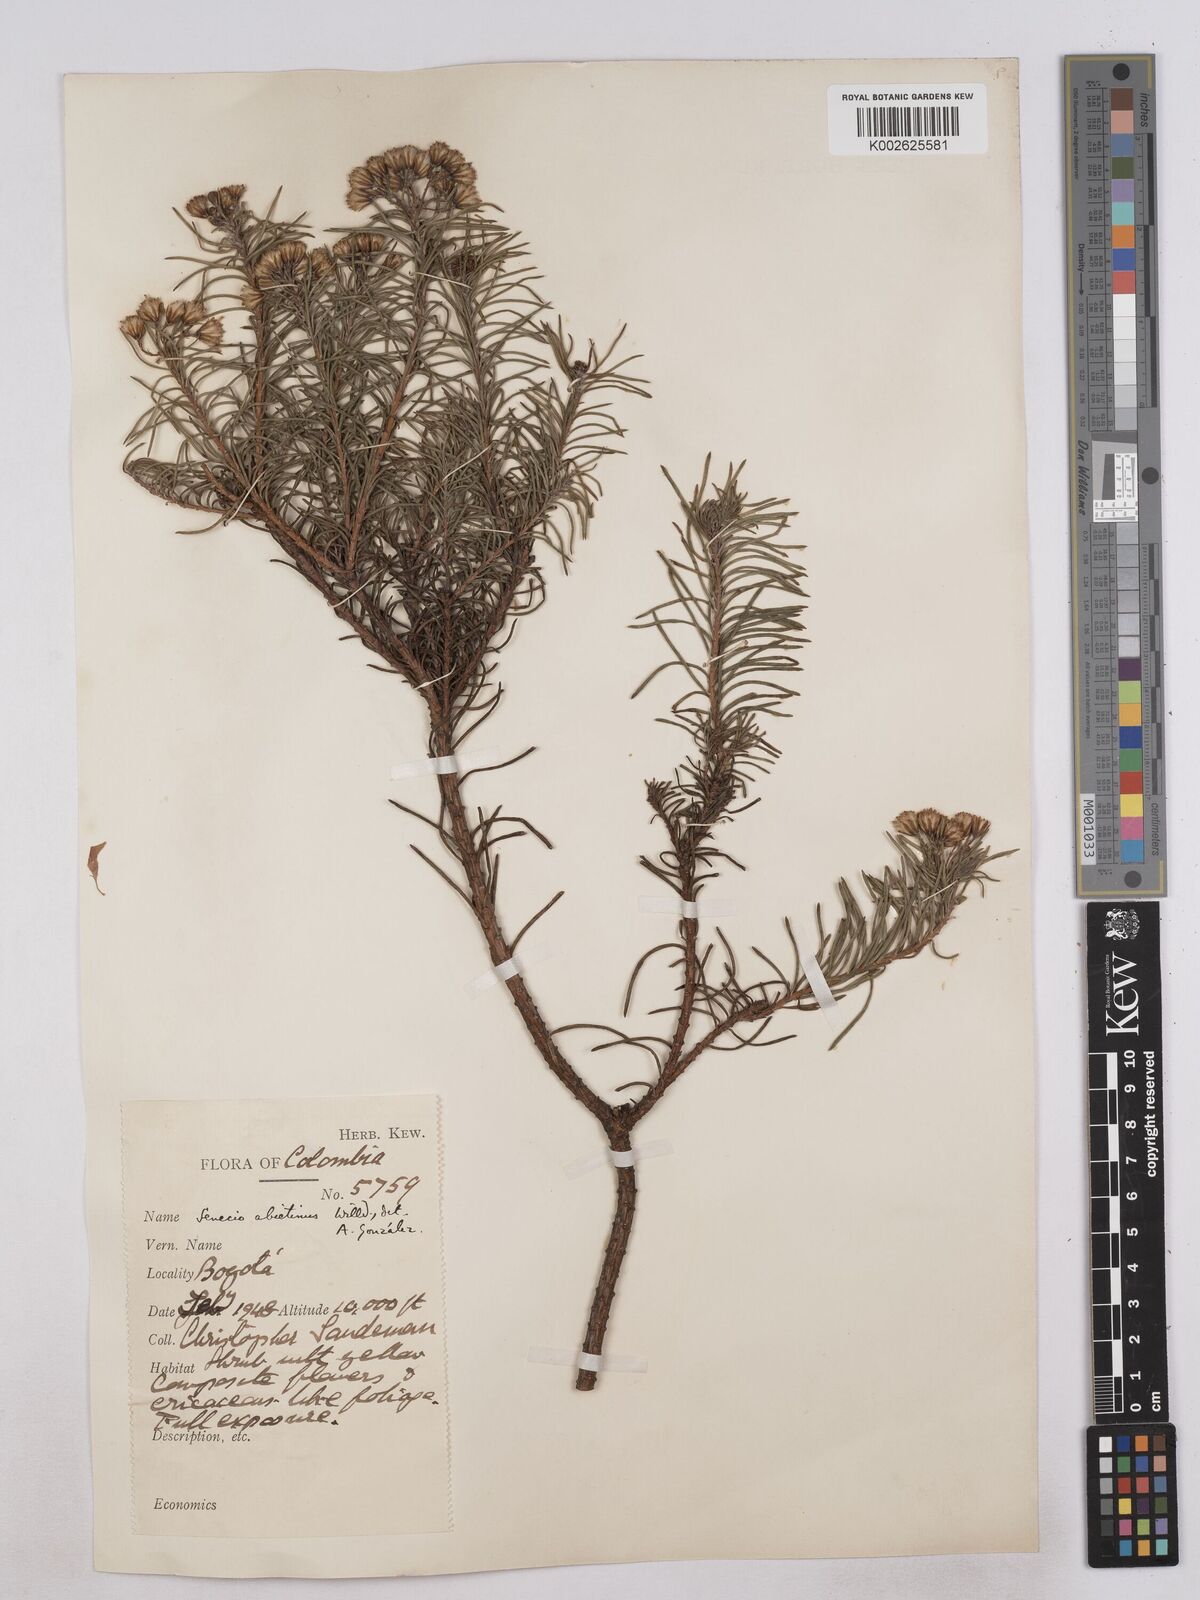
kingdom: Plantae
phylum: Tracheophyta
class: Magnoliopsida
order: Asterales
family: Asteraceae
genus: Monticalia
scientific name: Monticalia abietina
